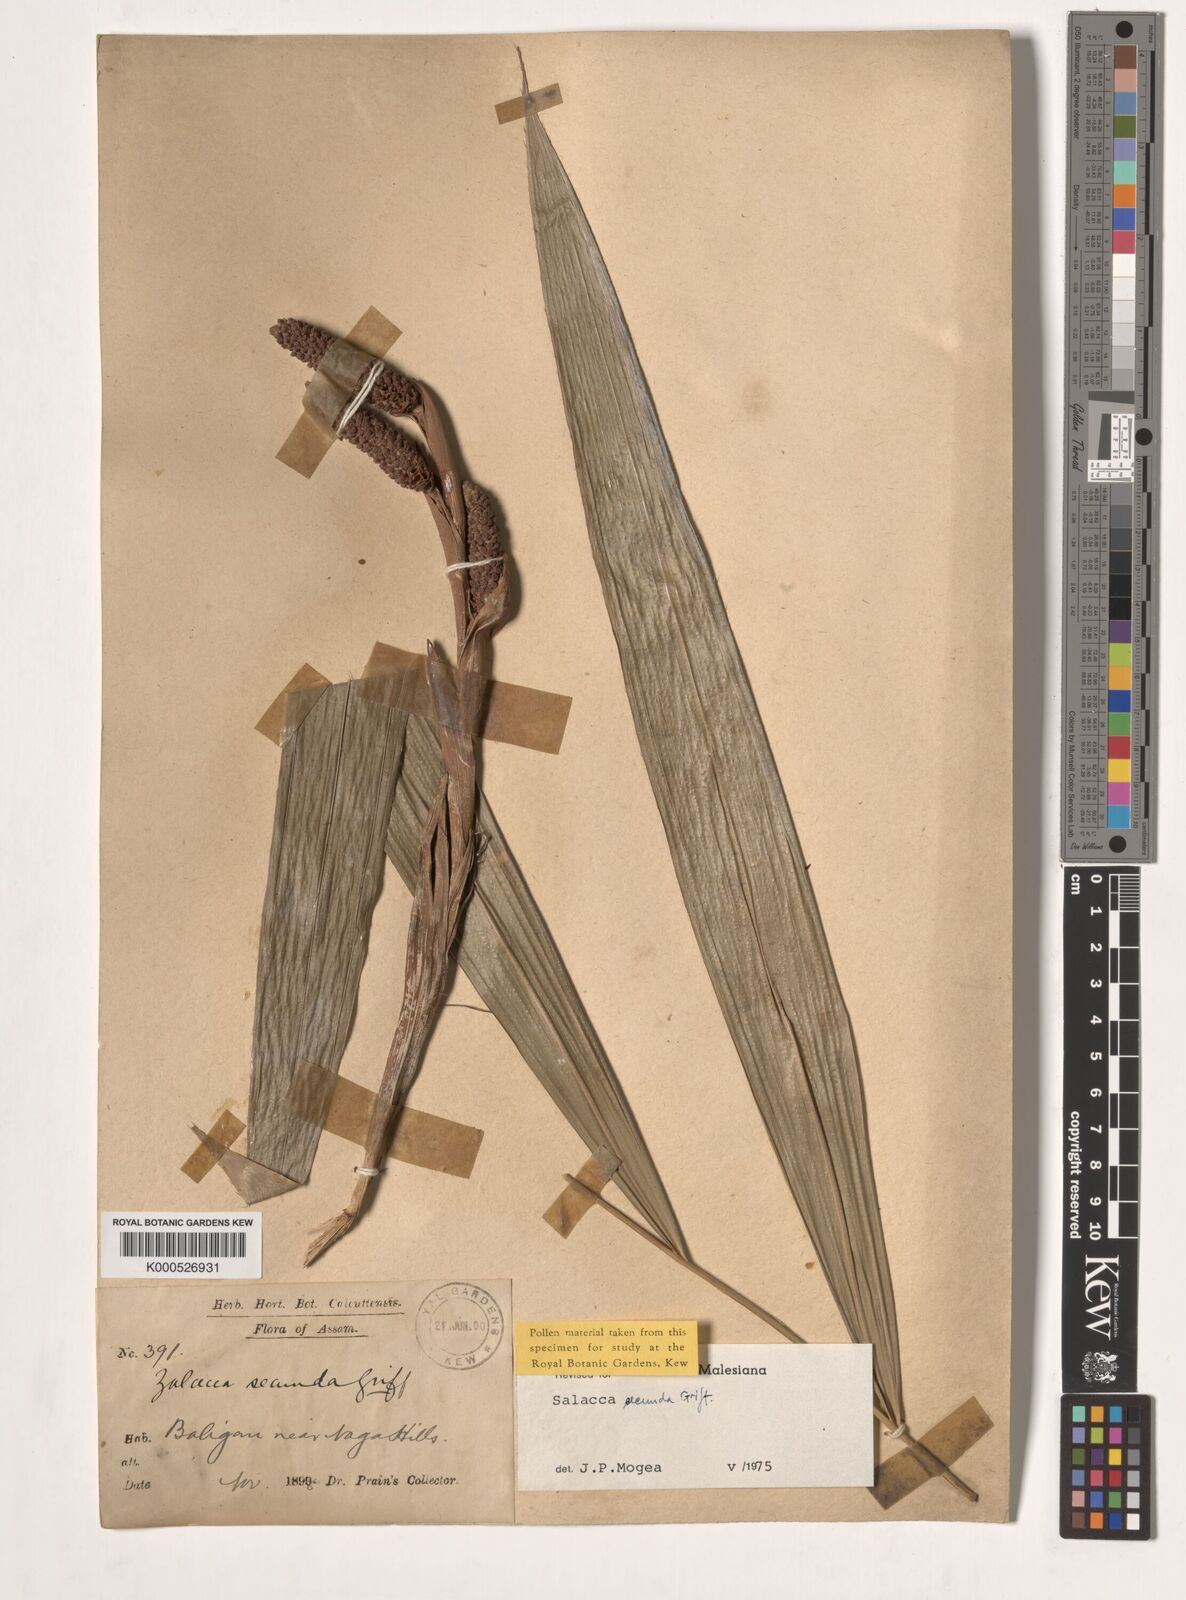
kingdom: Plantae
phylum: Tracheophyta
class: Liliopsida
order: Arecales
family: Arecaceae
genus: Salacca
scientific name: Salacca secunda
